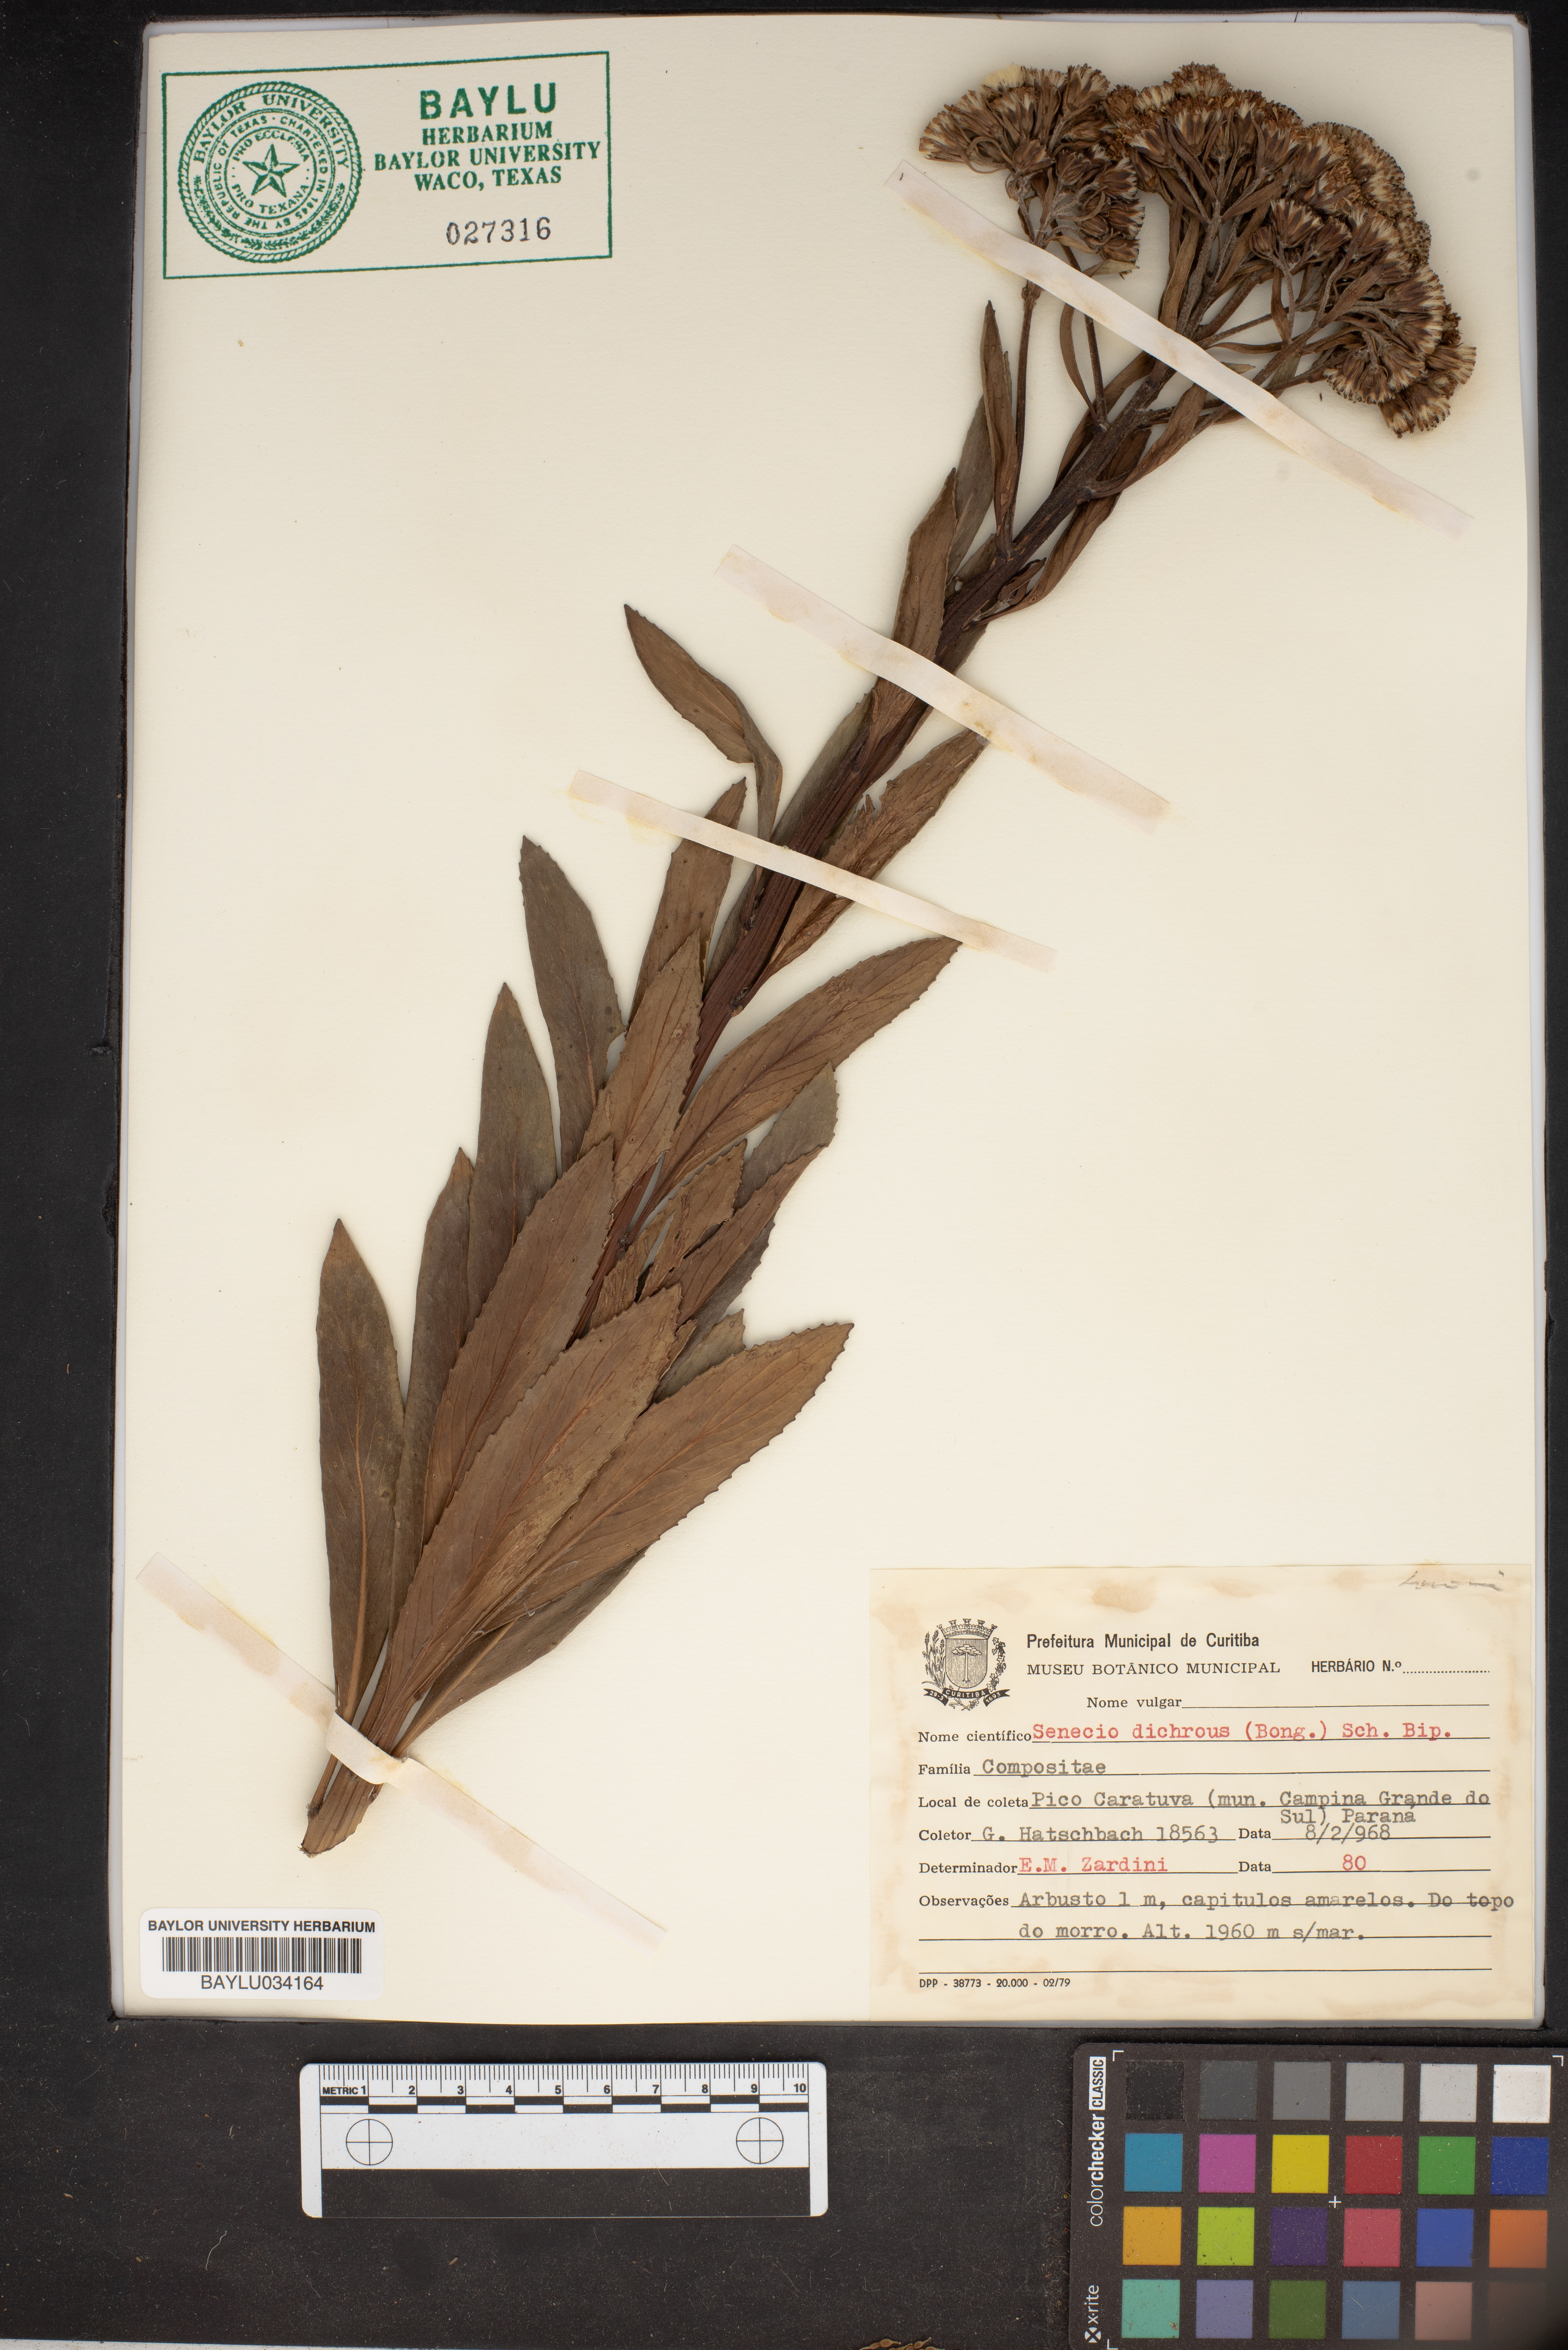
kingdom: Plantae
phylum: Tracheophyta
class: Magnoliopsida
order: Asterales
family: Asteraceae
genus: Graphistylis
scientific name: Graphistylis dichroa
